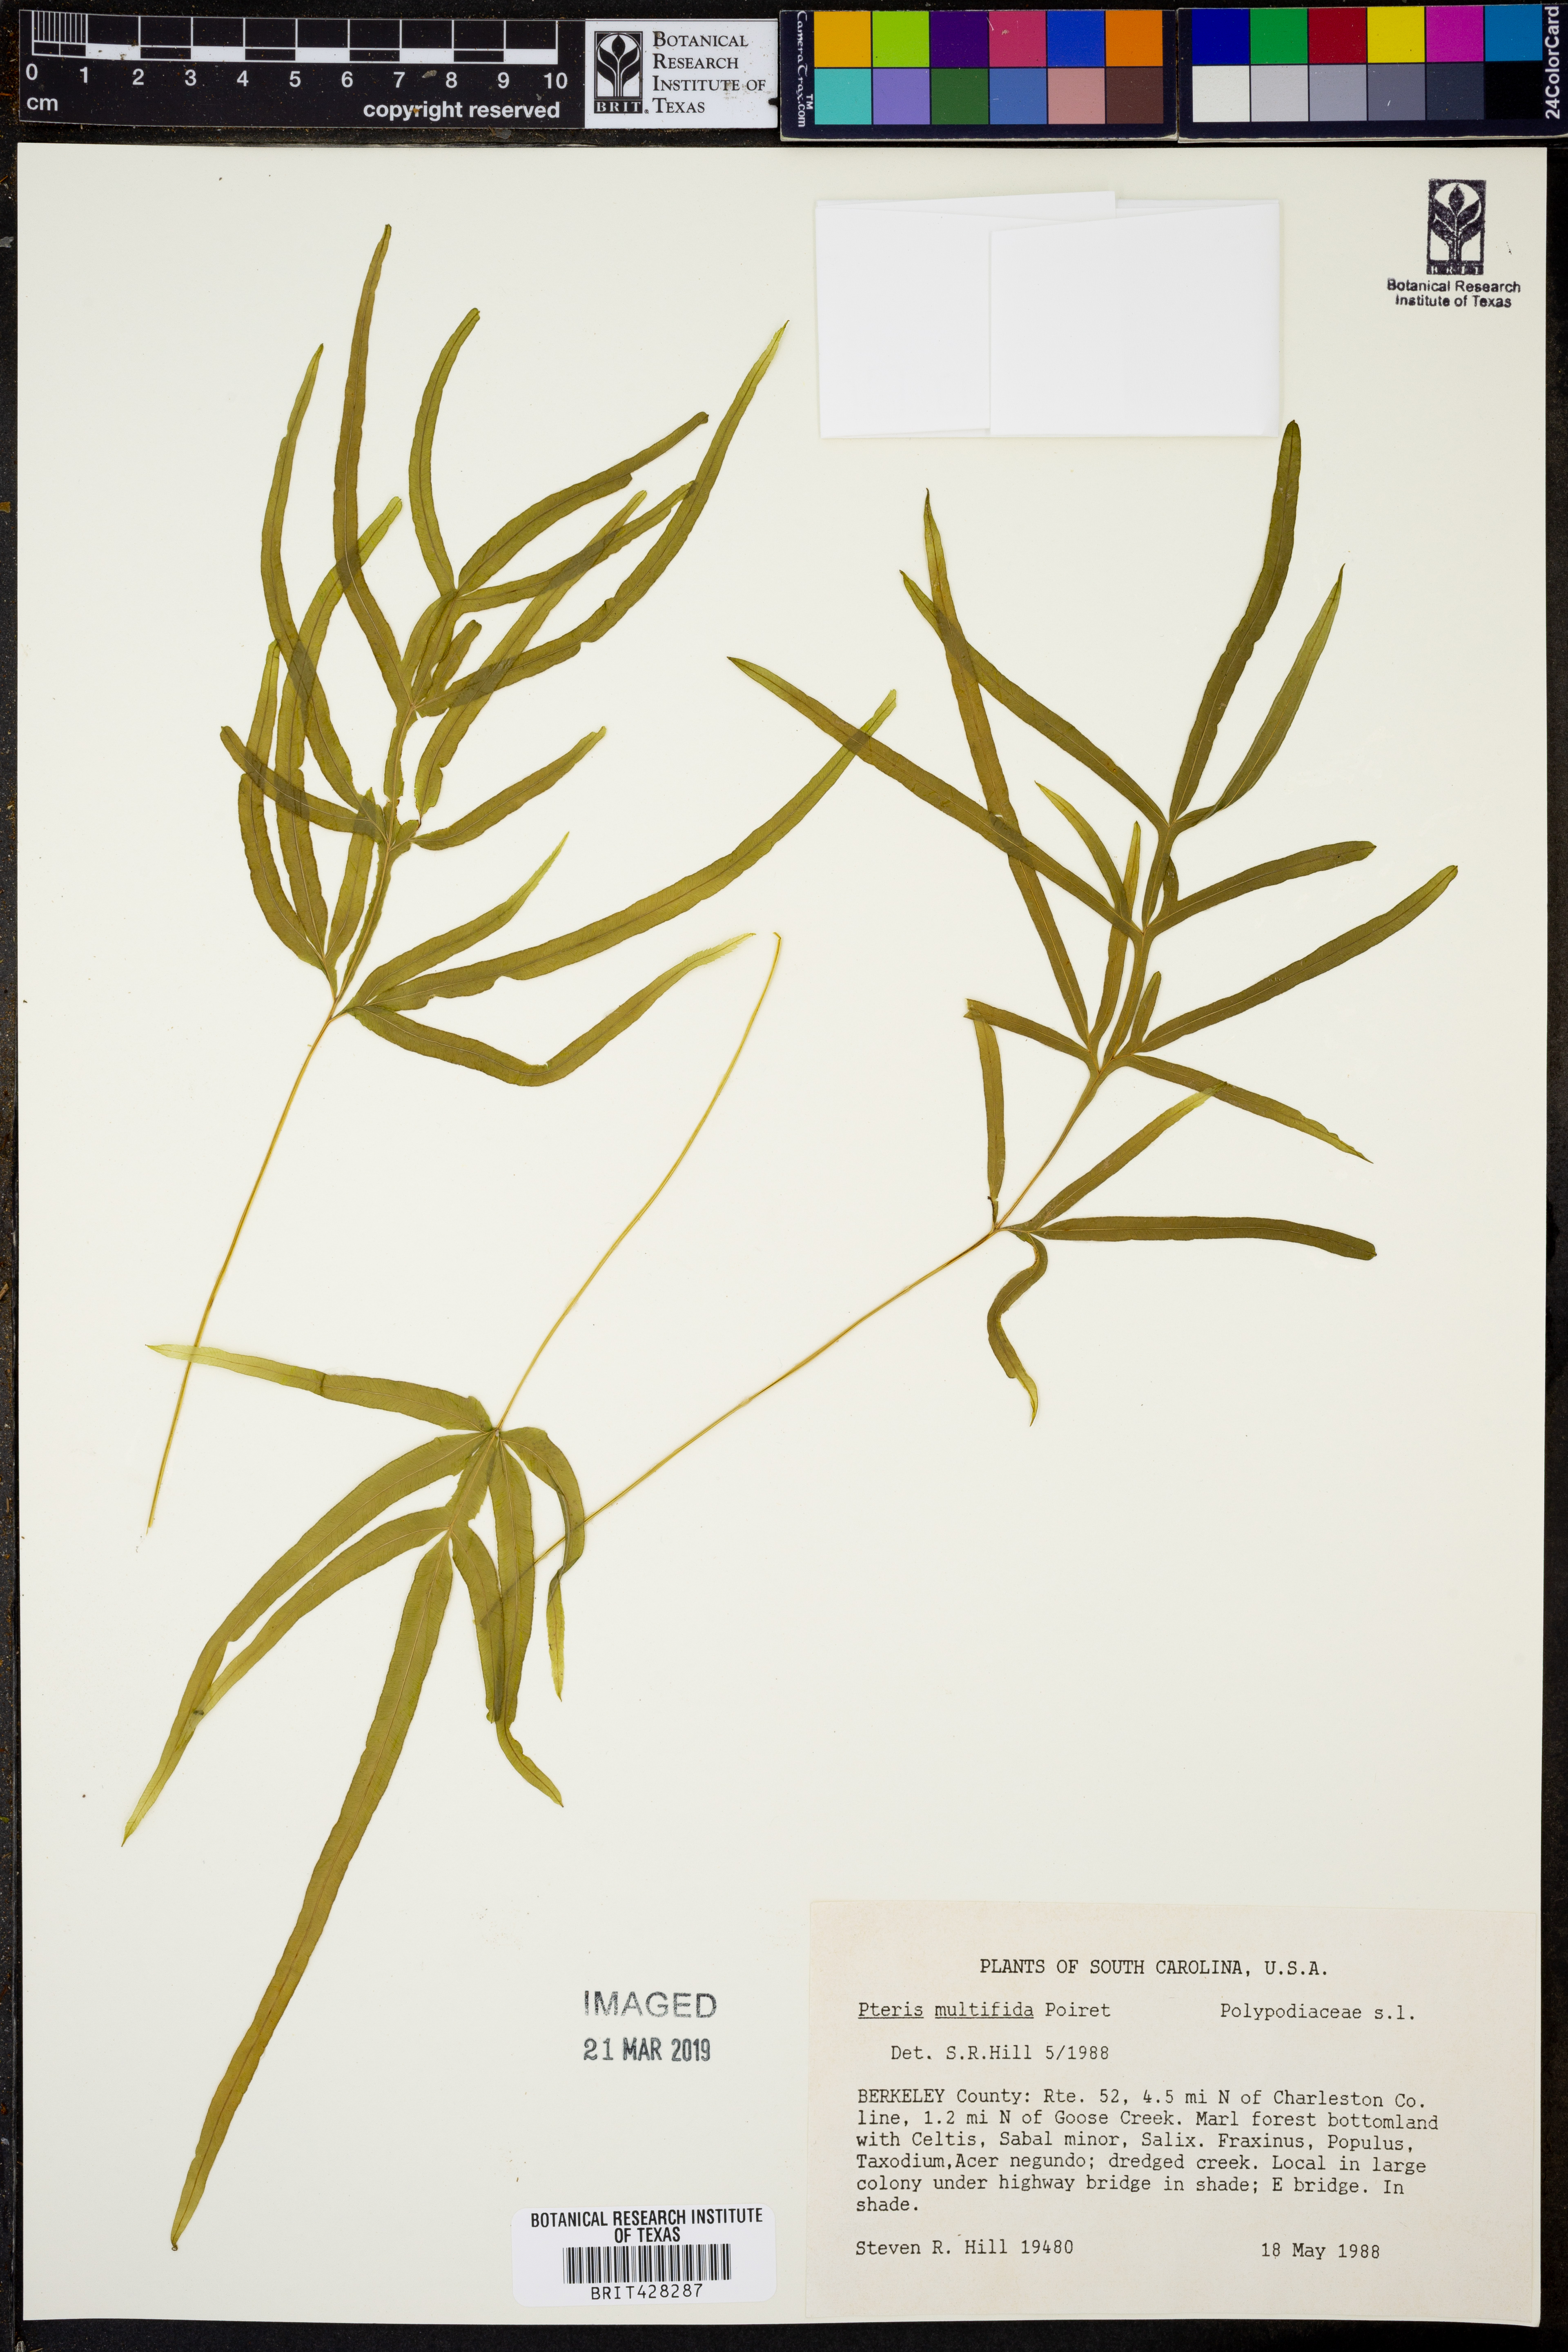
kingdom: Plantae
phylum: Tracheophyta
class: Polypodiopsida
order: Polypodiales
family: Pteridaceae
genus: Pteris
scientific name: Pteris multifida
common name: Spider brake
